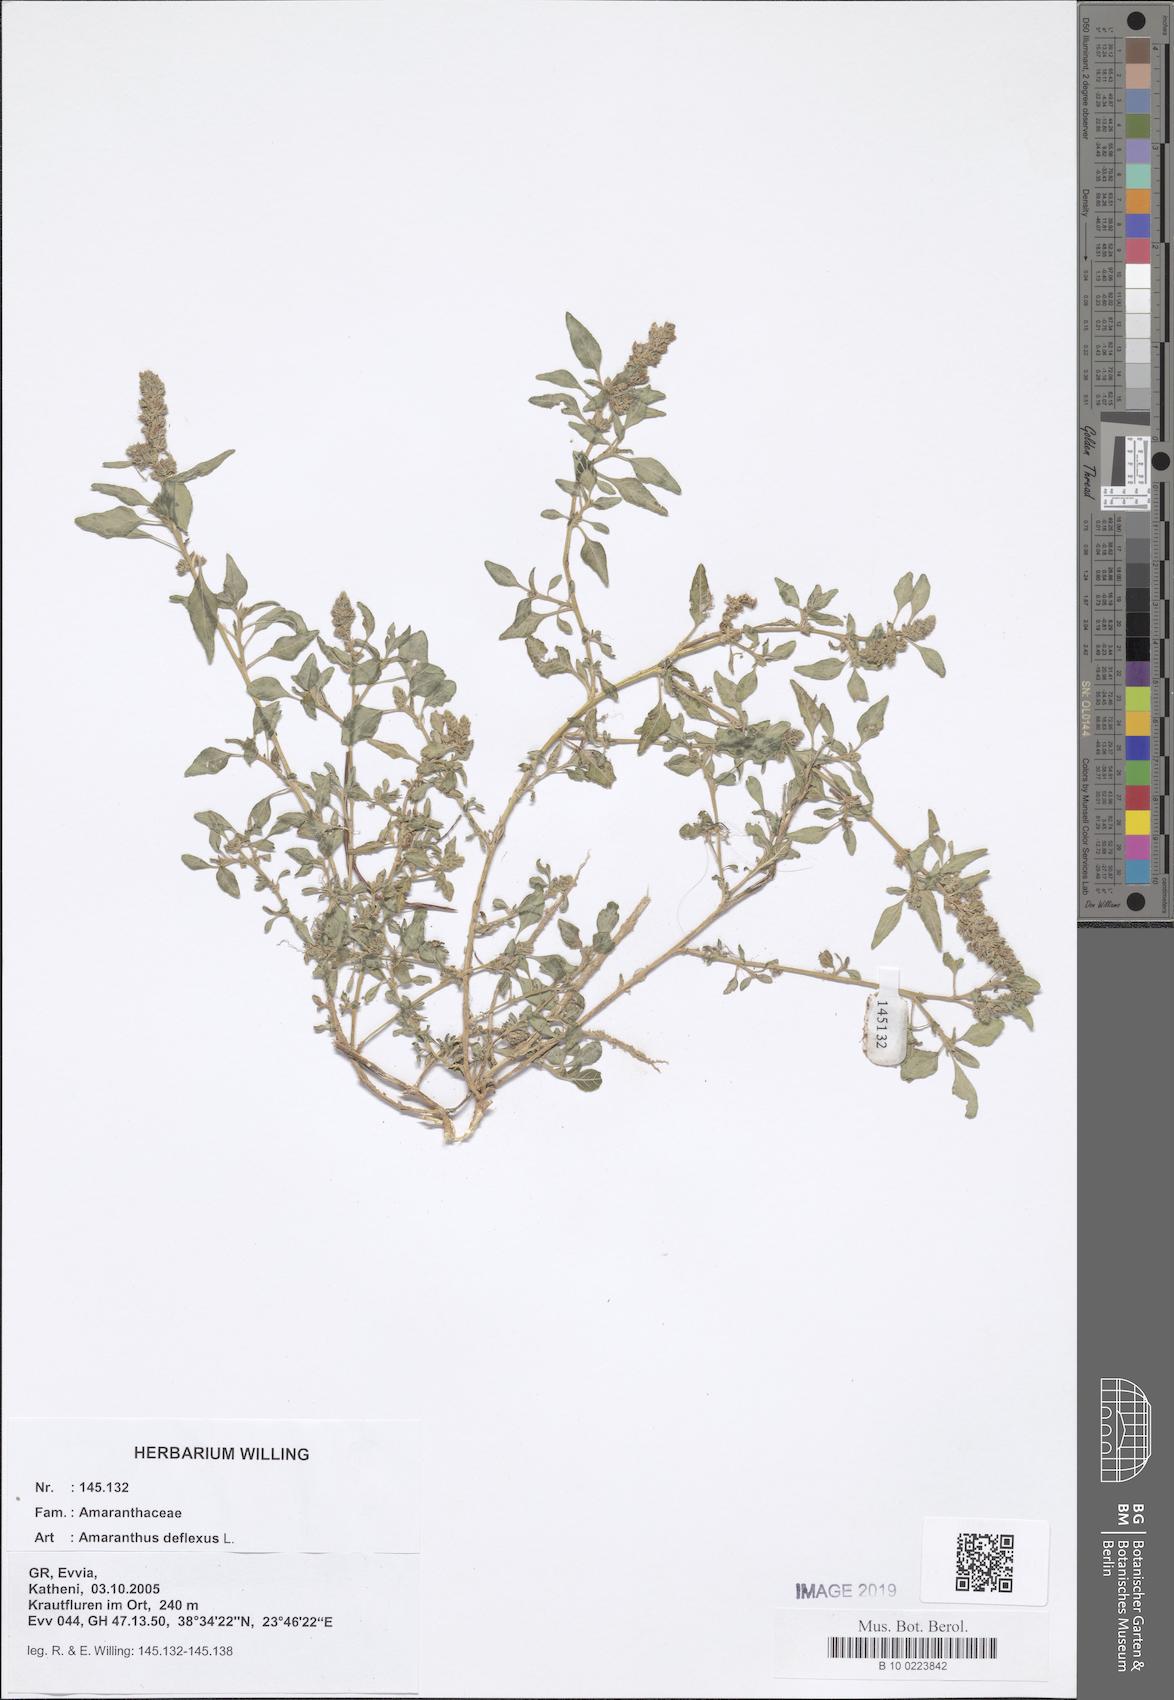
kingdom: Plantae
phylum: Tracheophyta
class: Magnoliopsida
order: Caryophyllales
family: Amaranthaceae
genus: Amaranthus
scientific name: Amaranthus deflexus
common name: Perennial pigweed
